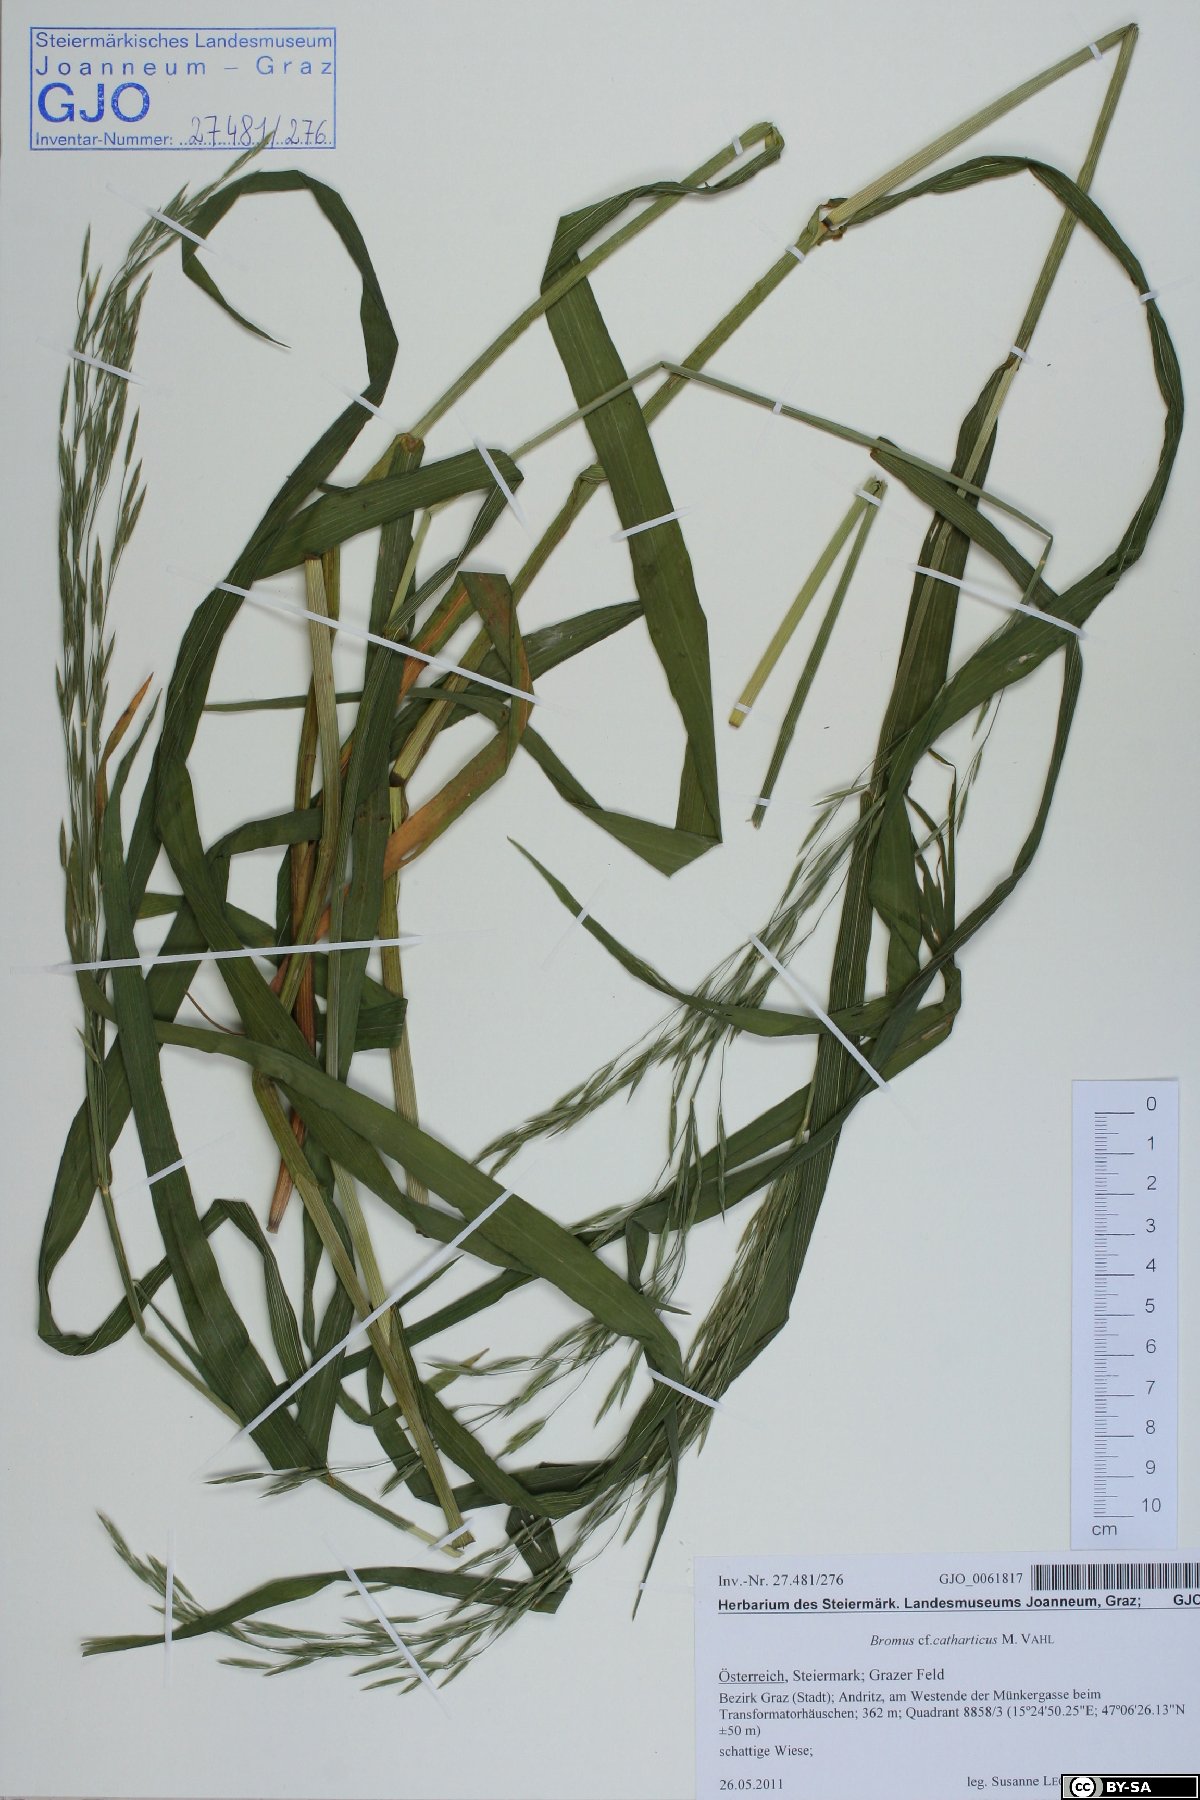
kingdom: Plantae
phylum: Tracheophyta
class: Liliopsida
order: Poales
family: Poaceae
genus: Bromus
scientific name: Bromus catharticus
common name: Rescuegrass
